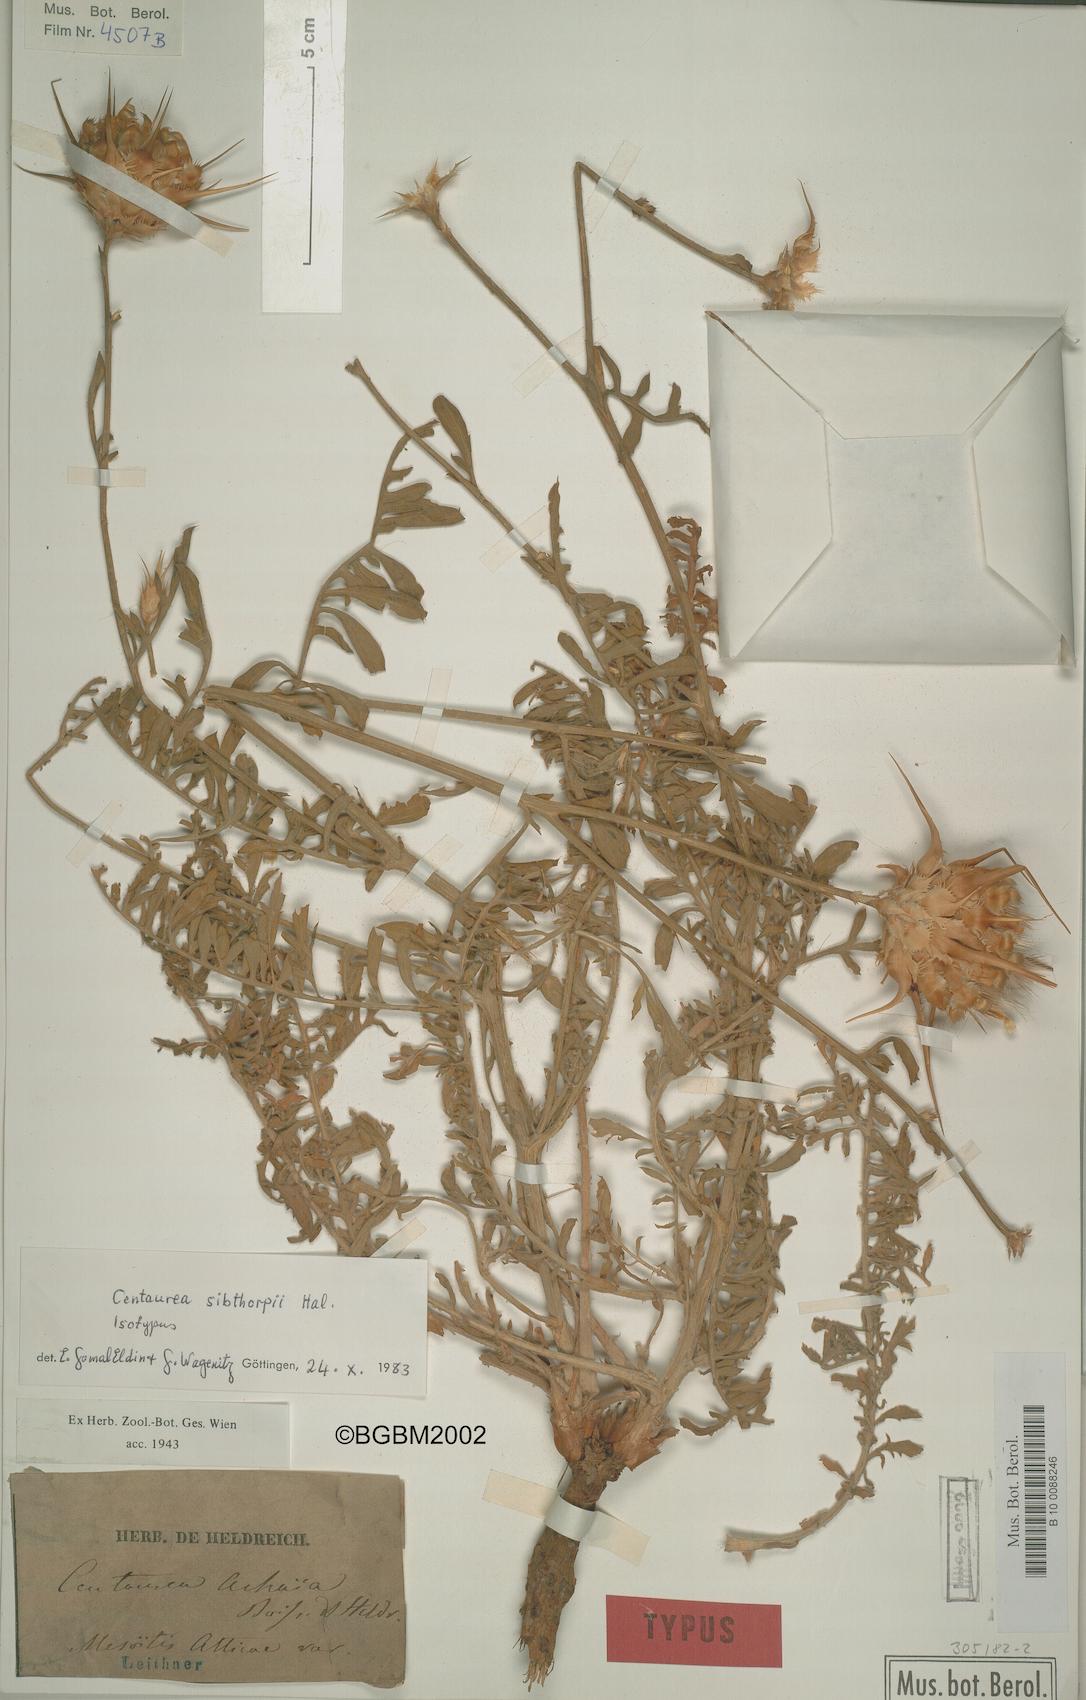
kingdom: Plantae
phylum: Tracheophyta
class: Magnoliopsida
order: Asterales
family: Asteraceae
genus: Centaurea
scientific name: Centaurea achaia
